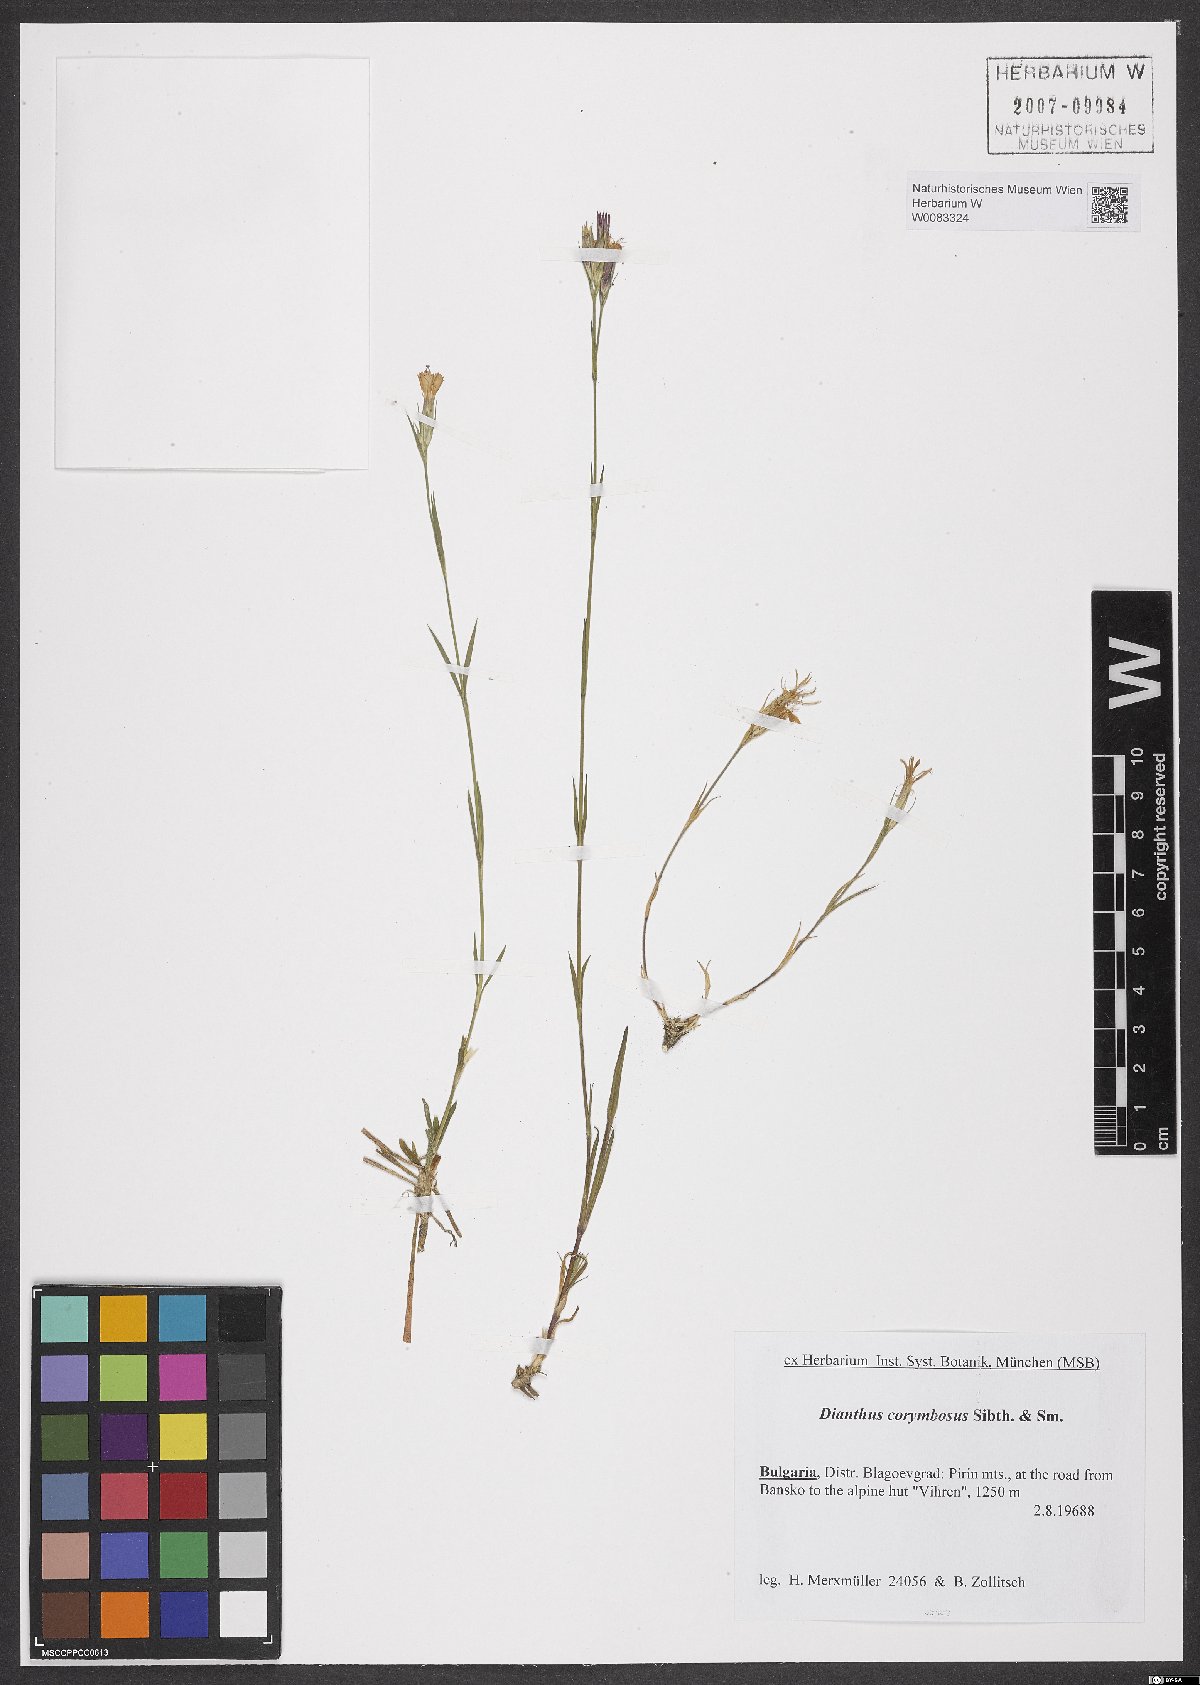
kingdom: Plantae
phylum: Tracheophyta
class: Magnoliopsida
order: Caryophyllales
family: Caryophyllaceae
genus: Dianthus
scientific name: Dianthus corymbosus
